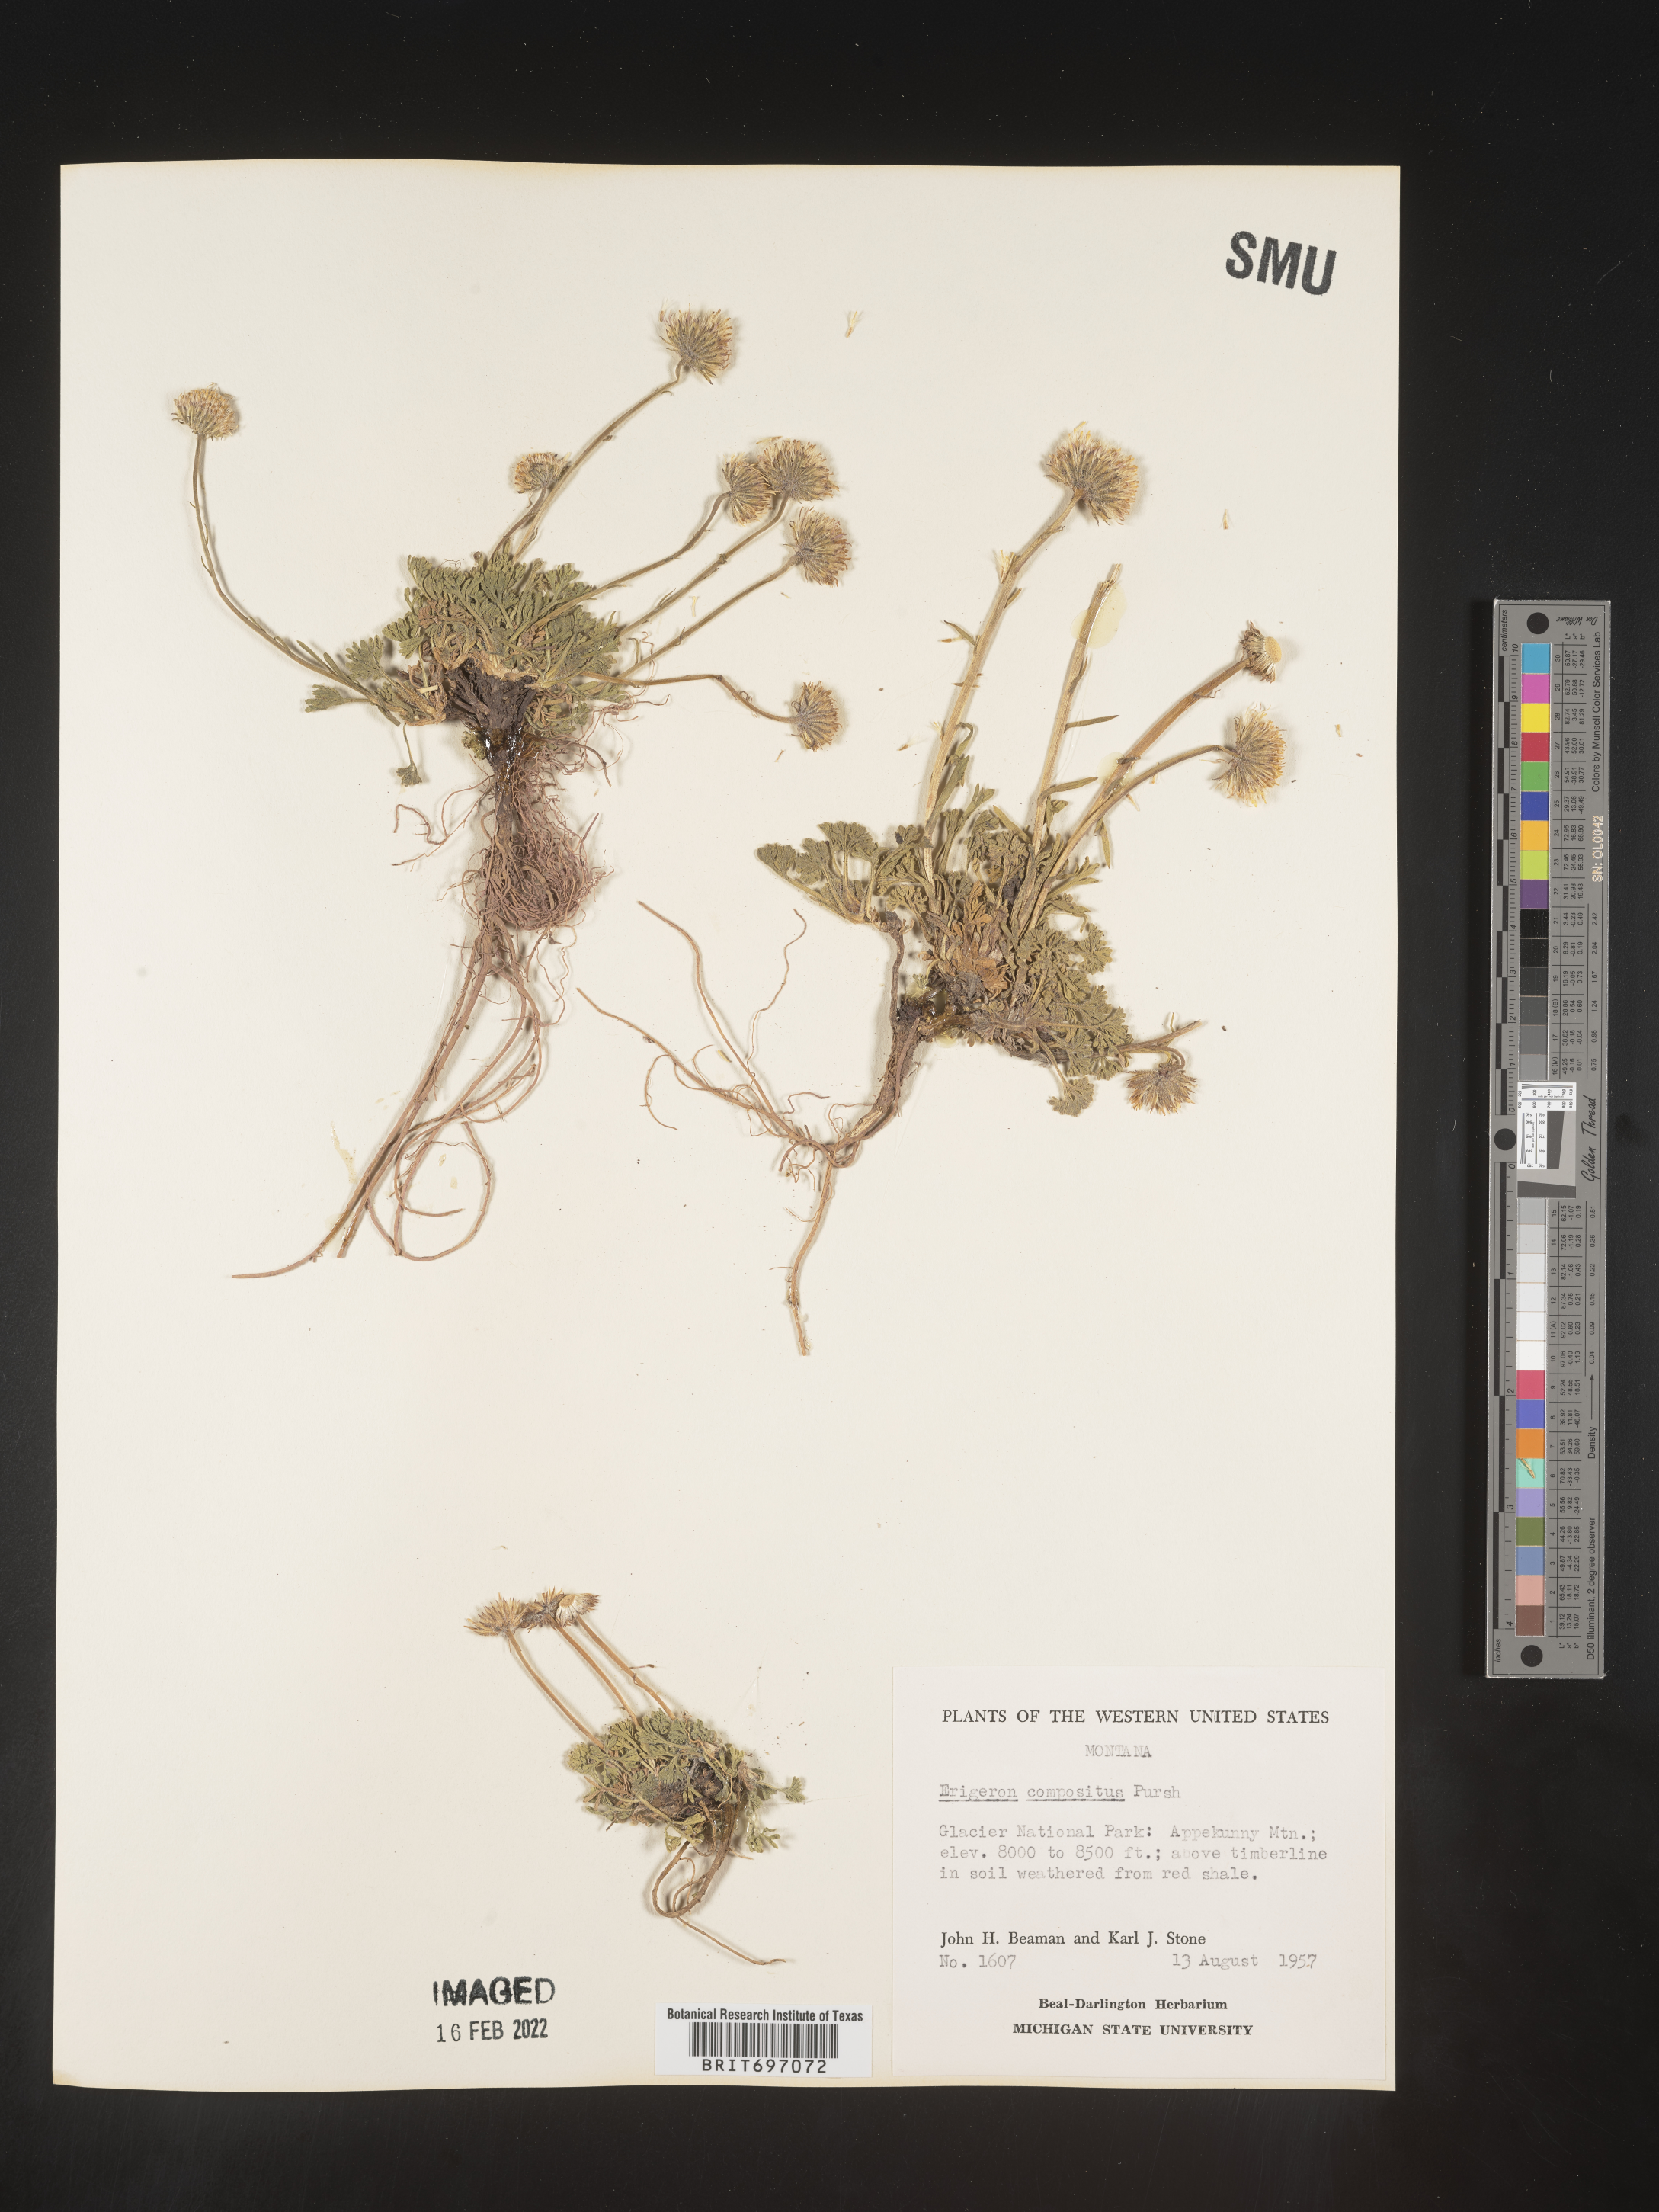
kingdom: Plantae
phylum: Tracheophyta
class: Magnoliopsida
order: Asterales
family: Asteraceae
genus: Erigeron
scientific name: Erigeron compositus
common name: Dwarf mountain fleabane
